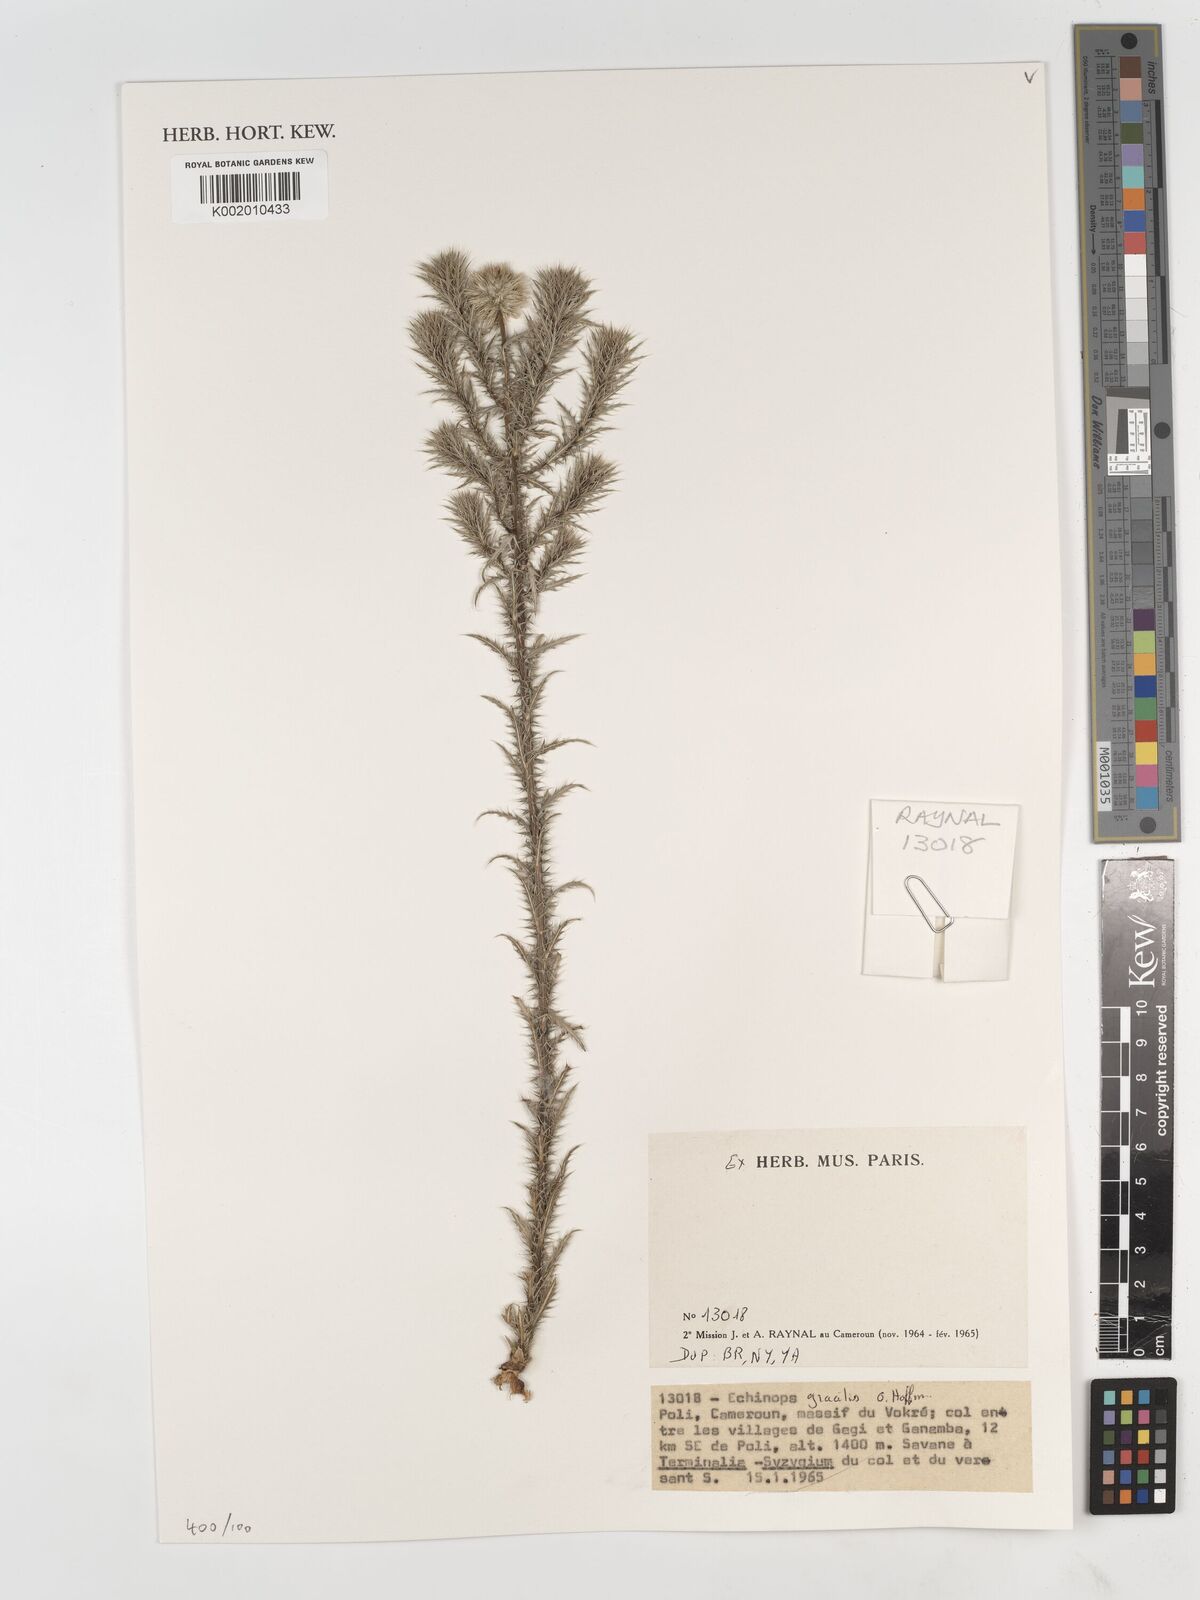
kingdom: Plantae
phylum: Tracheophyta
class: Magnoliopsida
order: Asterales
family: Asteraceae
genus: Echinops
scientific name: Echinops gracilis
